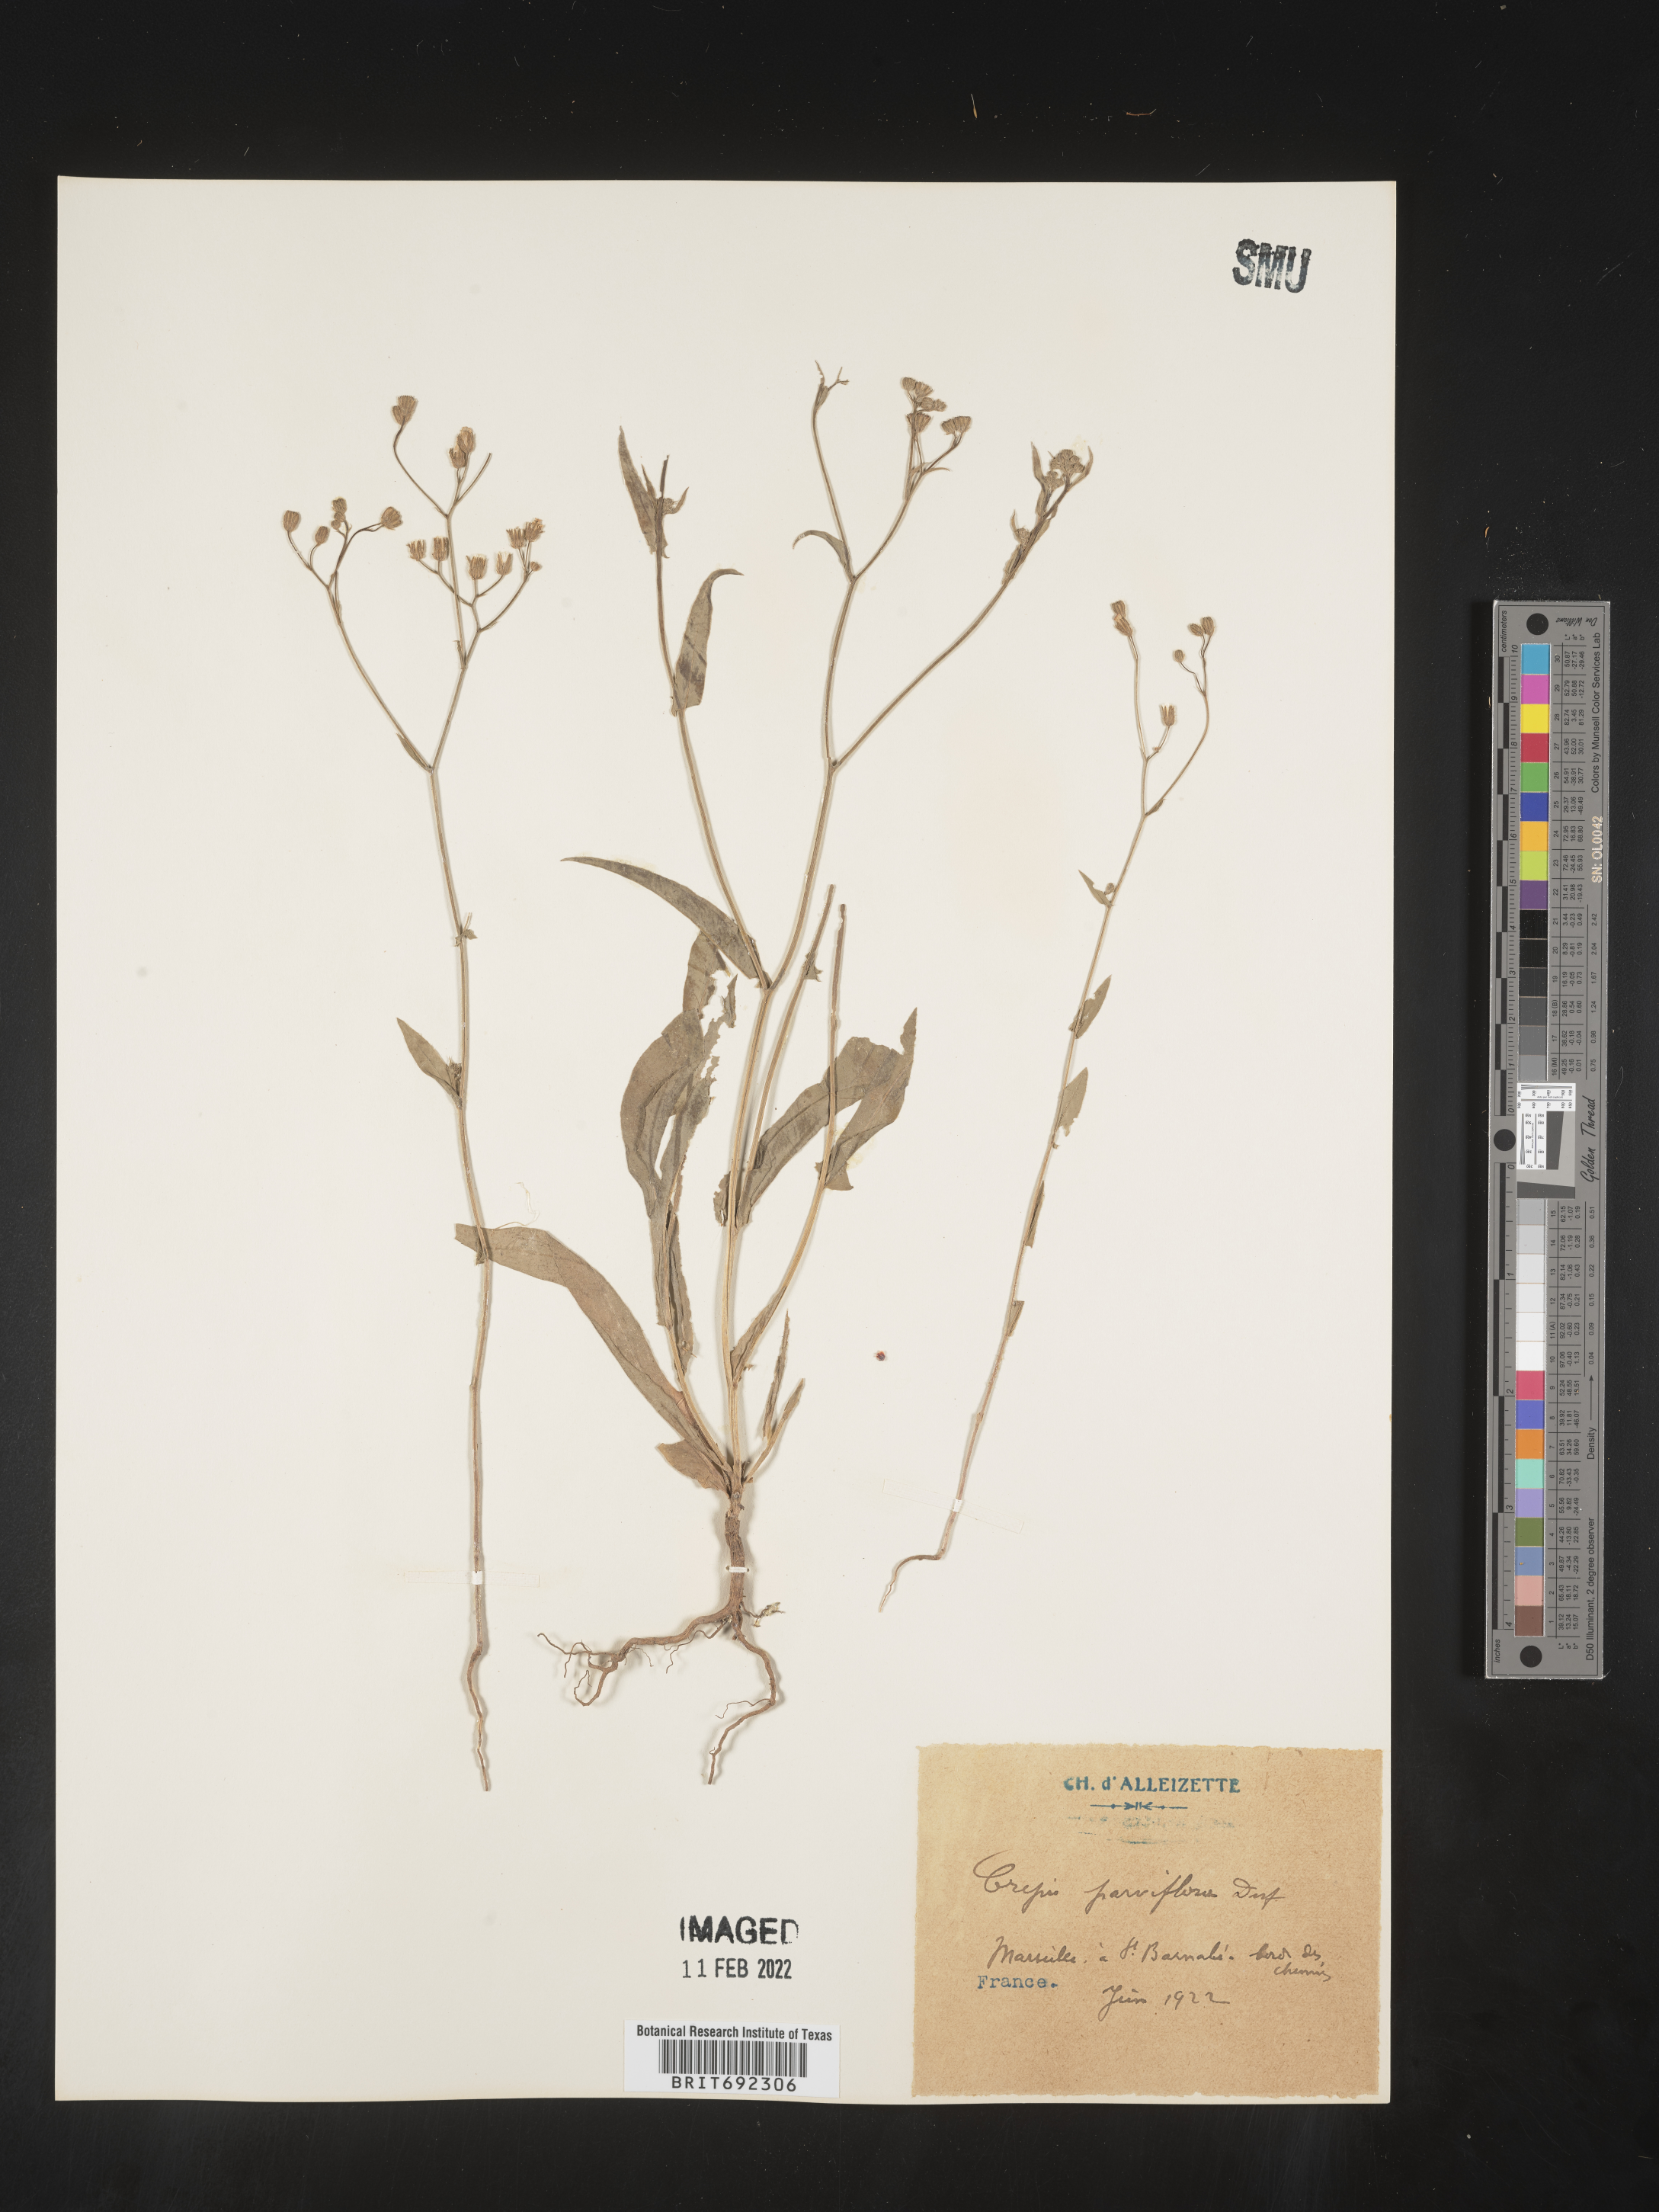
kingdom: Plantae
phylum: Tracheophyta
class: Magnoliopsida
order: Asterales
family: Asteraceae
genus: Crepis
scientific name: Crepis
